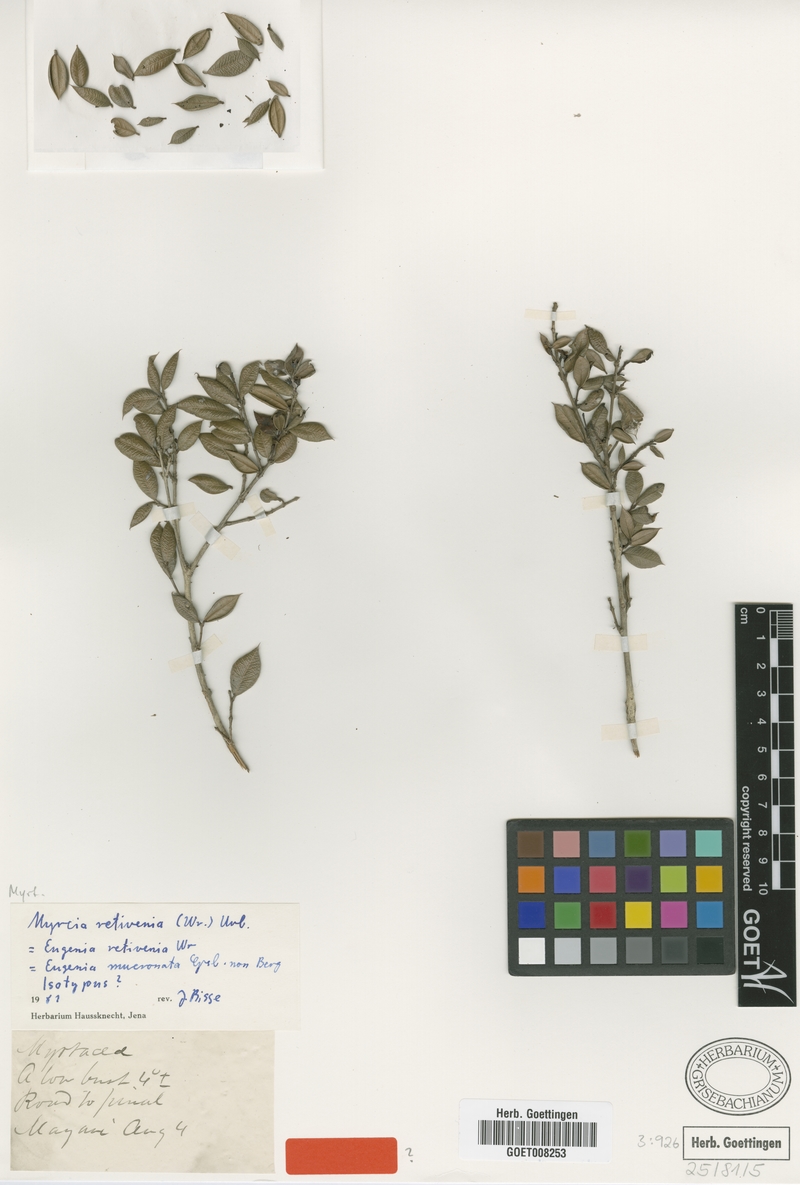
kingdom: Plantae
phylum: Tracheophyta
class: Magnoliopsida
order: Myrtales
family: Myrtaceae
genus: Myrcia
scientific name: Myrcia retivenia
